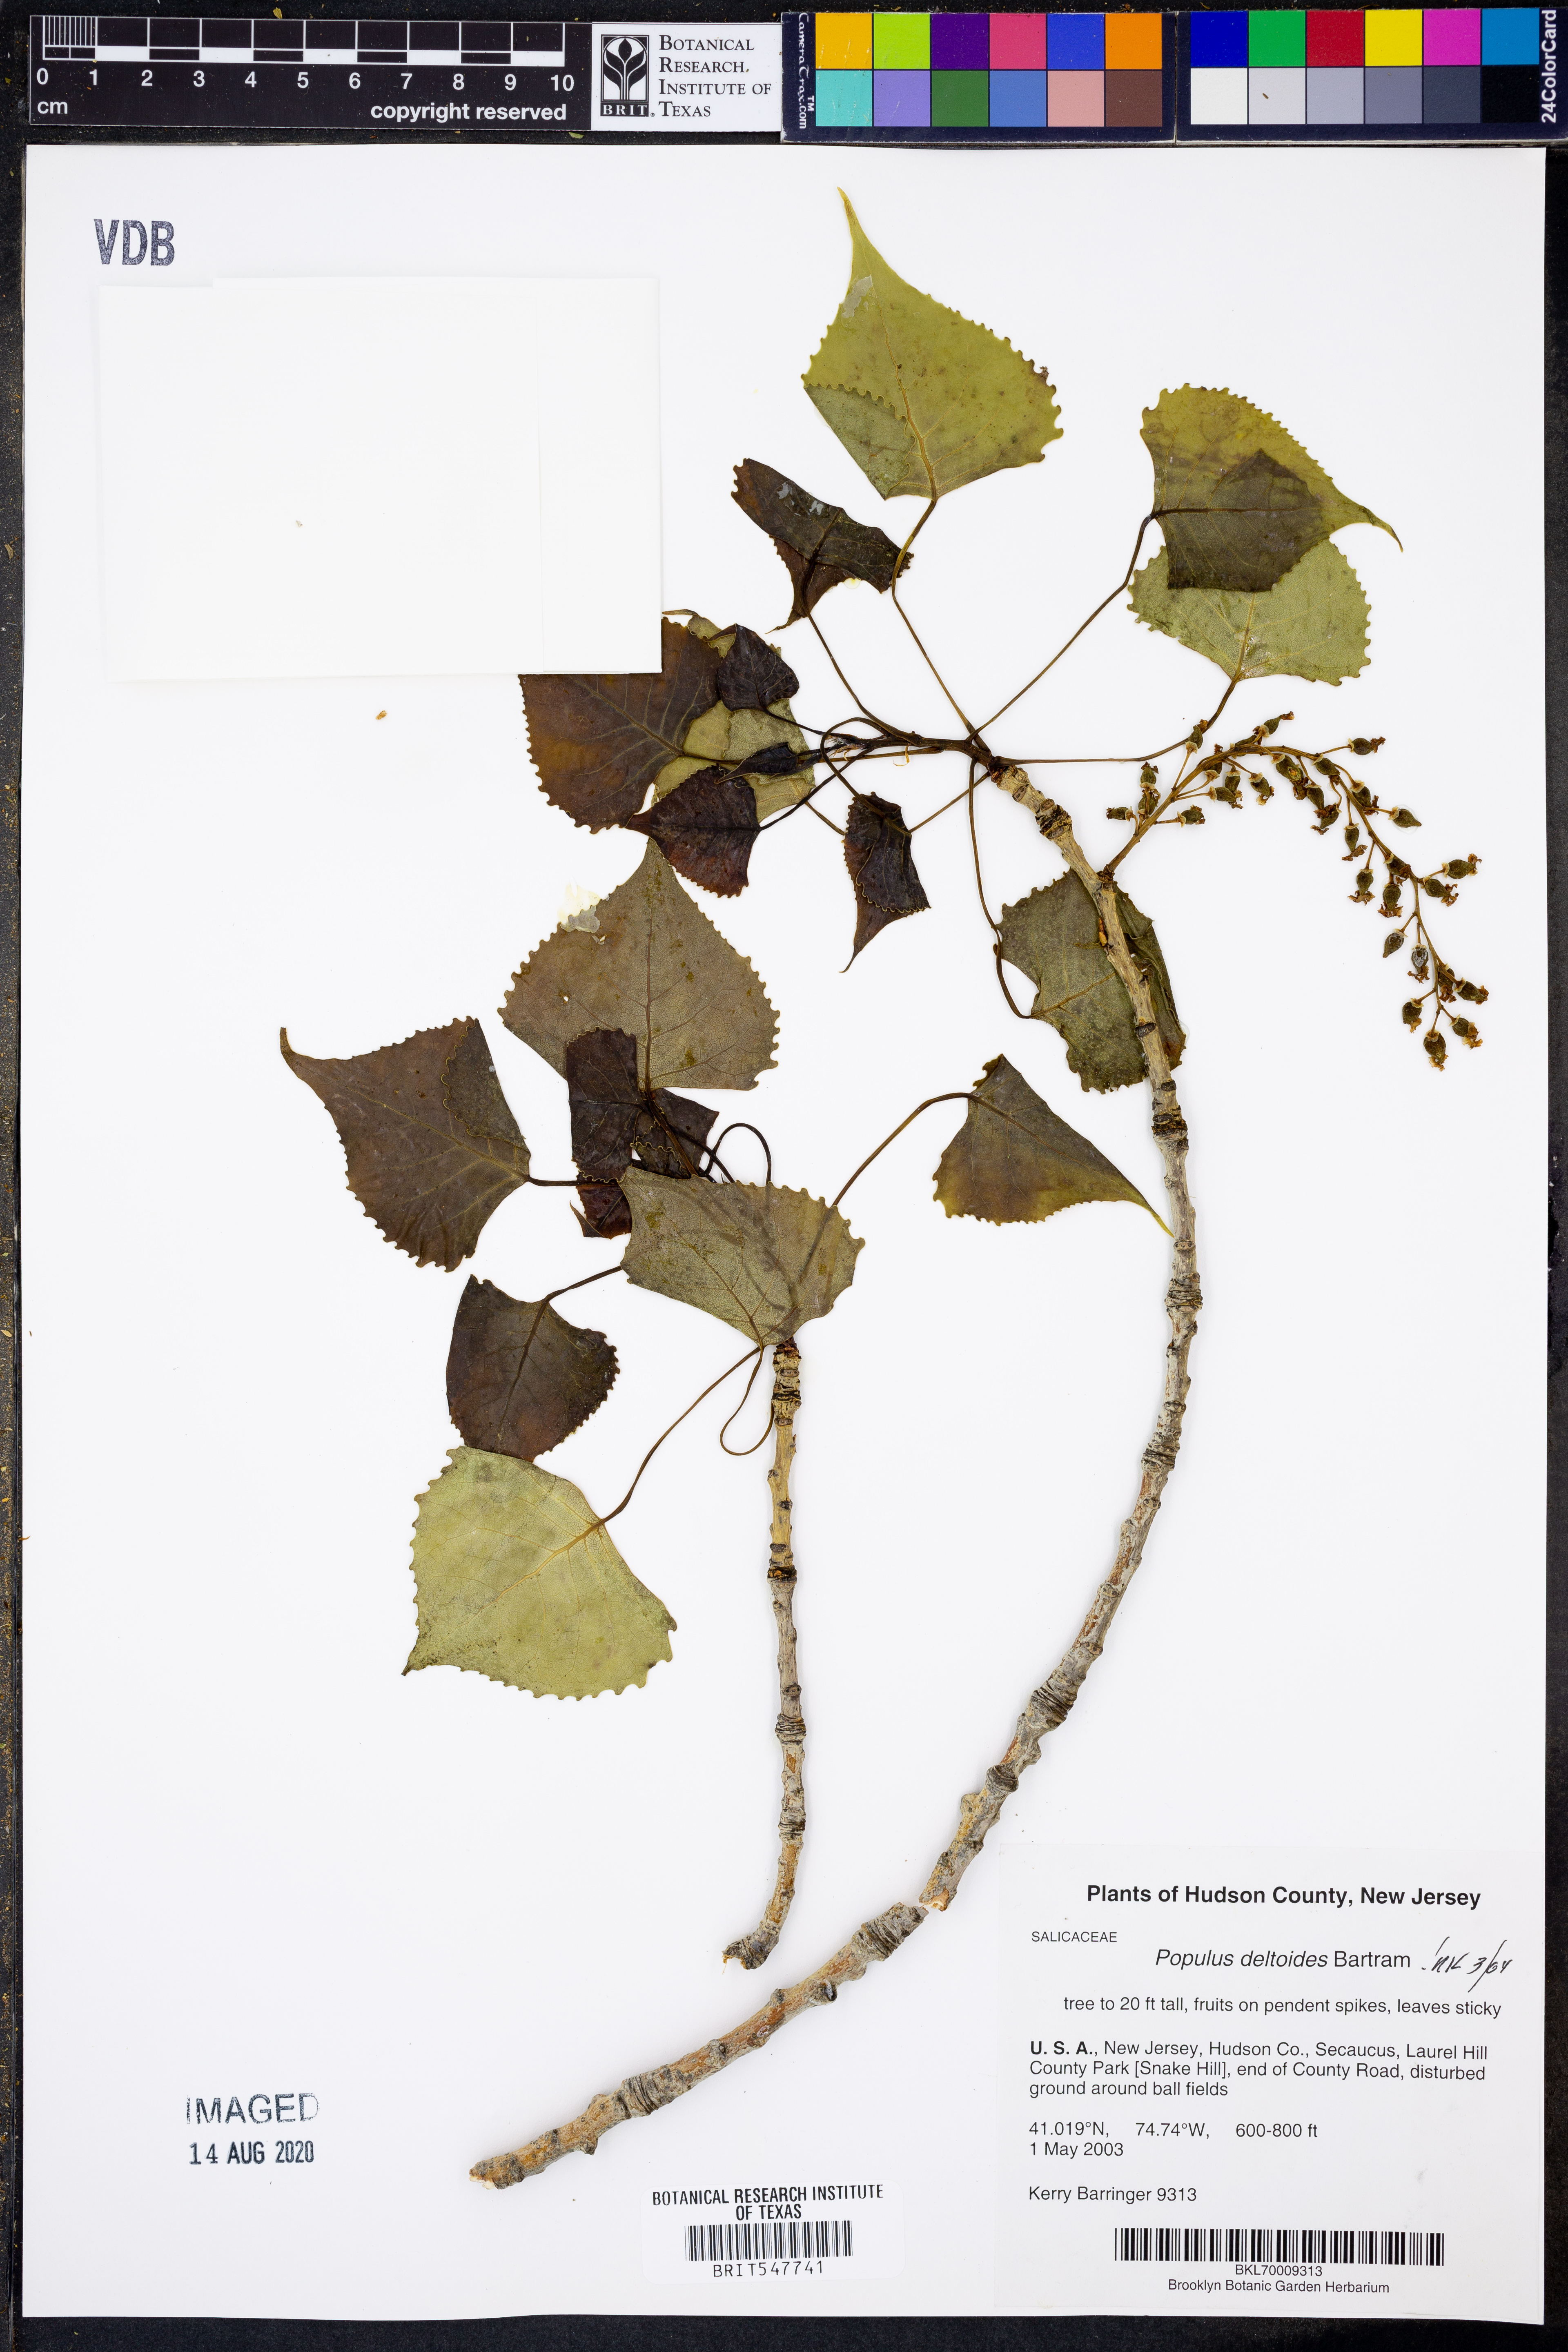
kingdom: Plantae
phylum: Tracheophyta
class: Magnoliopsida
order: Malpighiales
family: Salicaceae
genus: Populus
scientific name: Populus deltoides
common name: Eastern cottonwood
